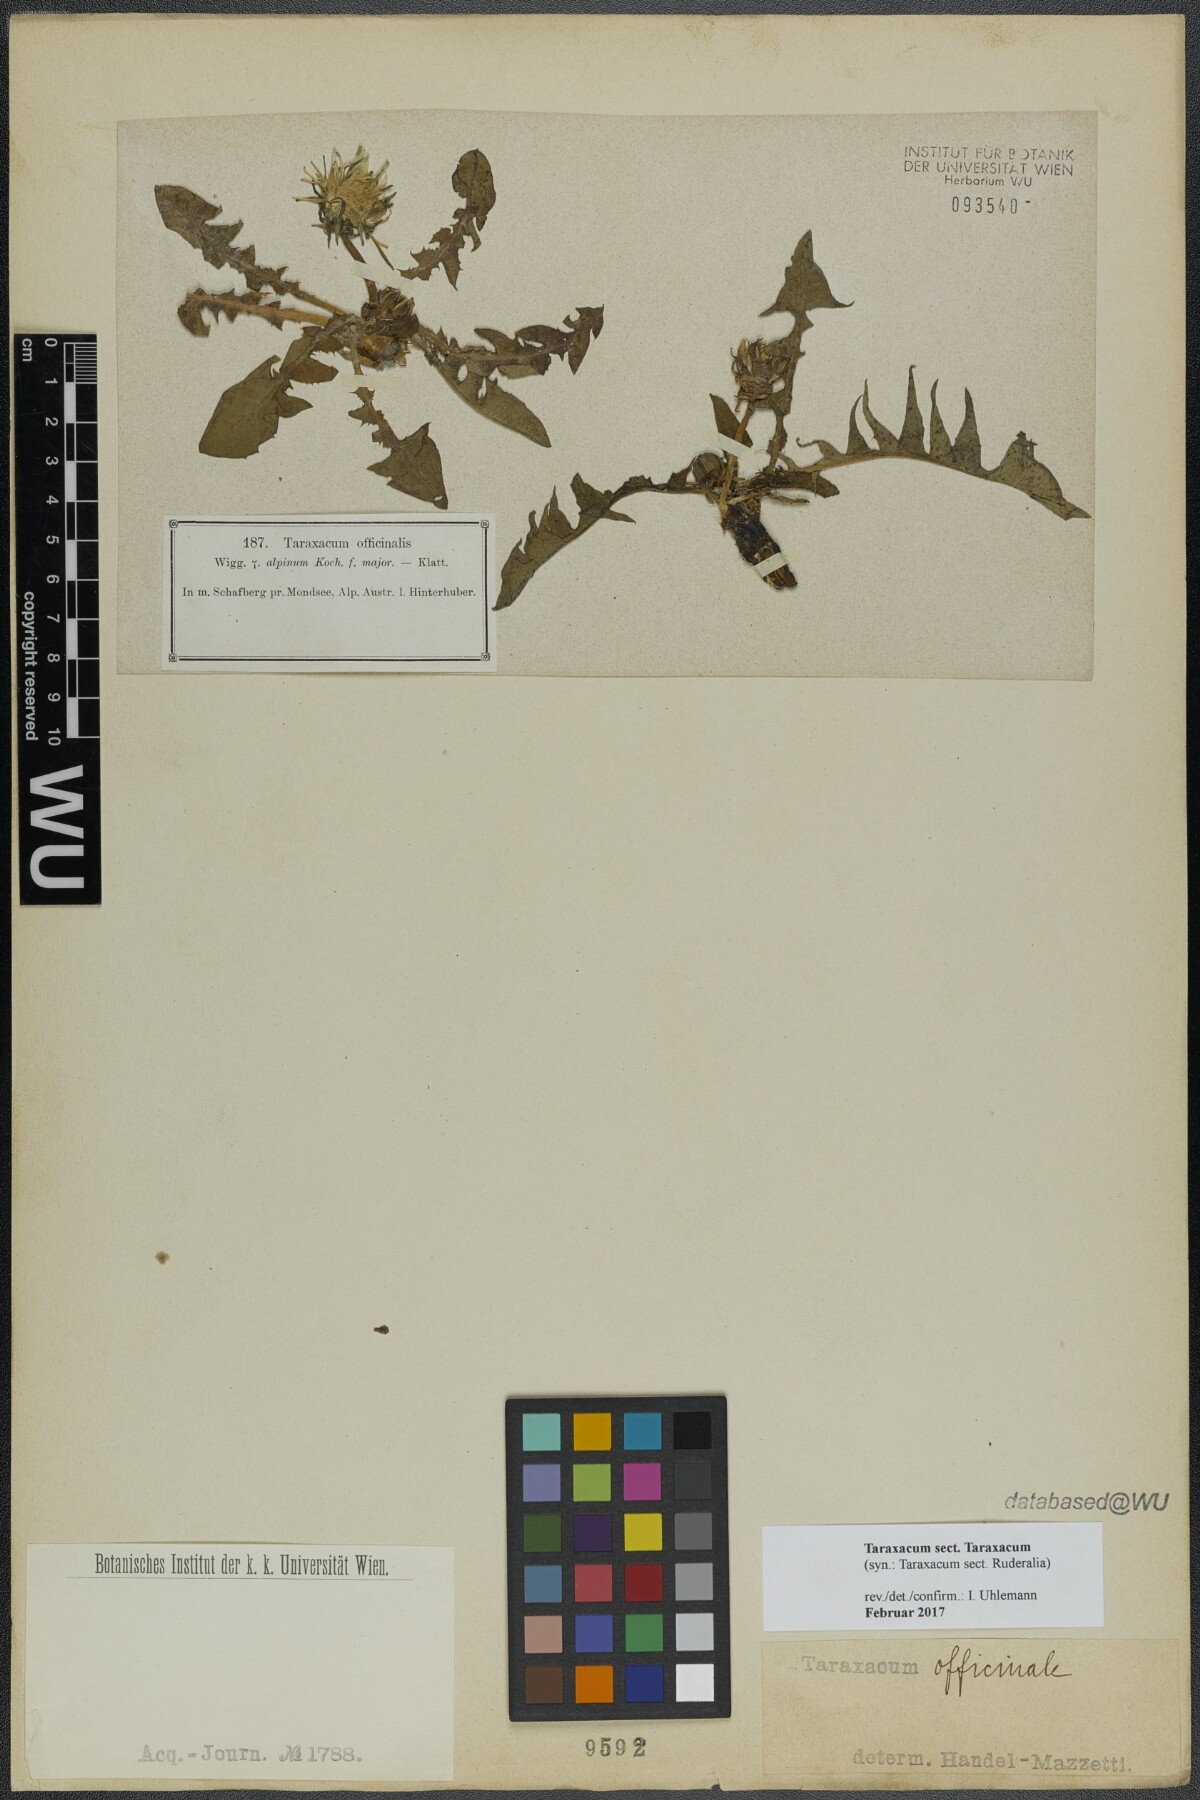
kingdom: Plantae
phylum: Tracheophyta
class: Magnoliopsida
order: Asterales
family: Asteraceae
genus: Taraxacum
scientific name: Taraxacum
